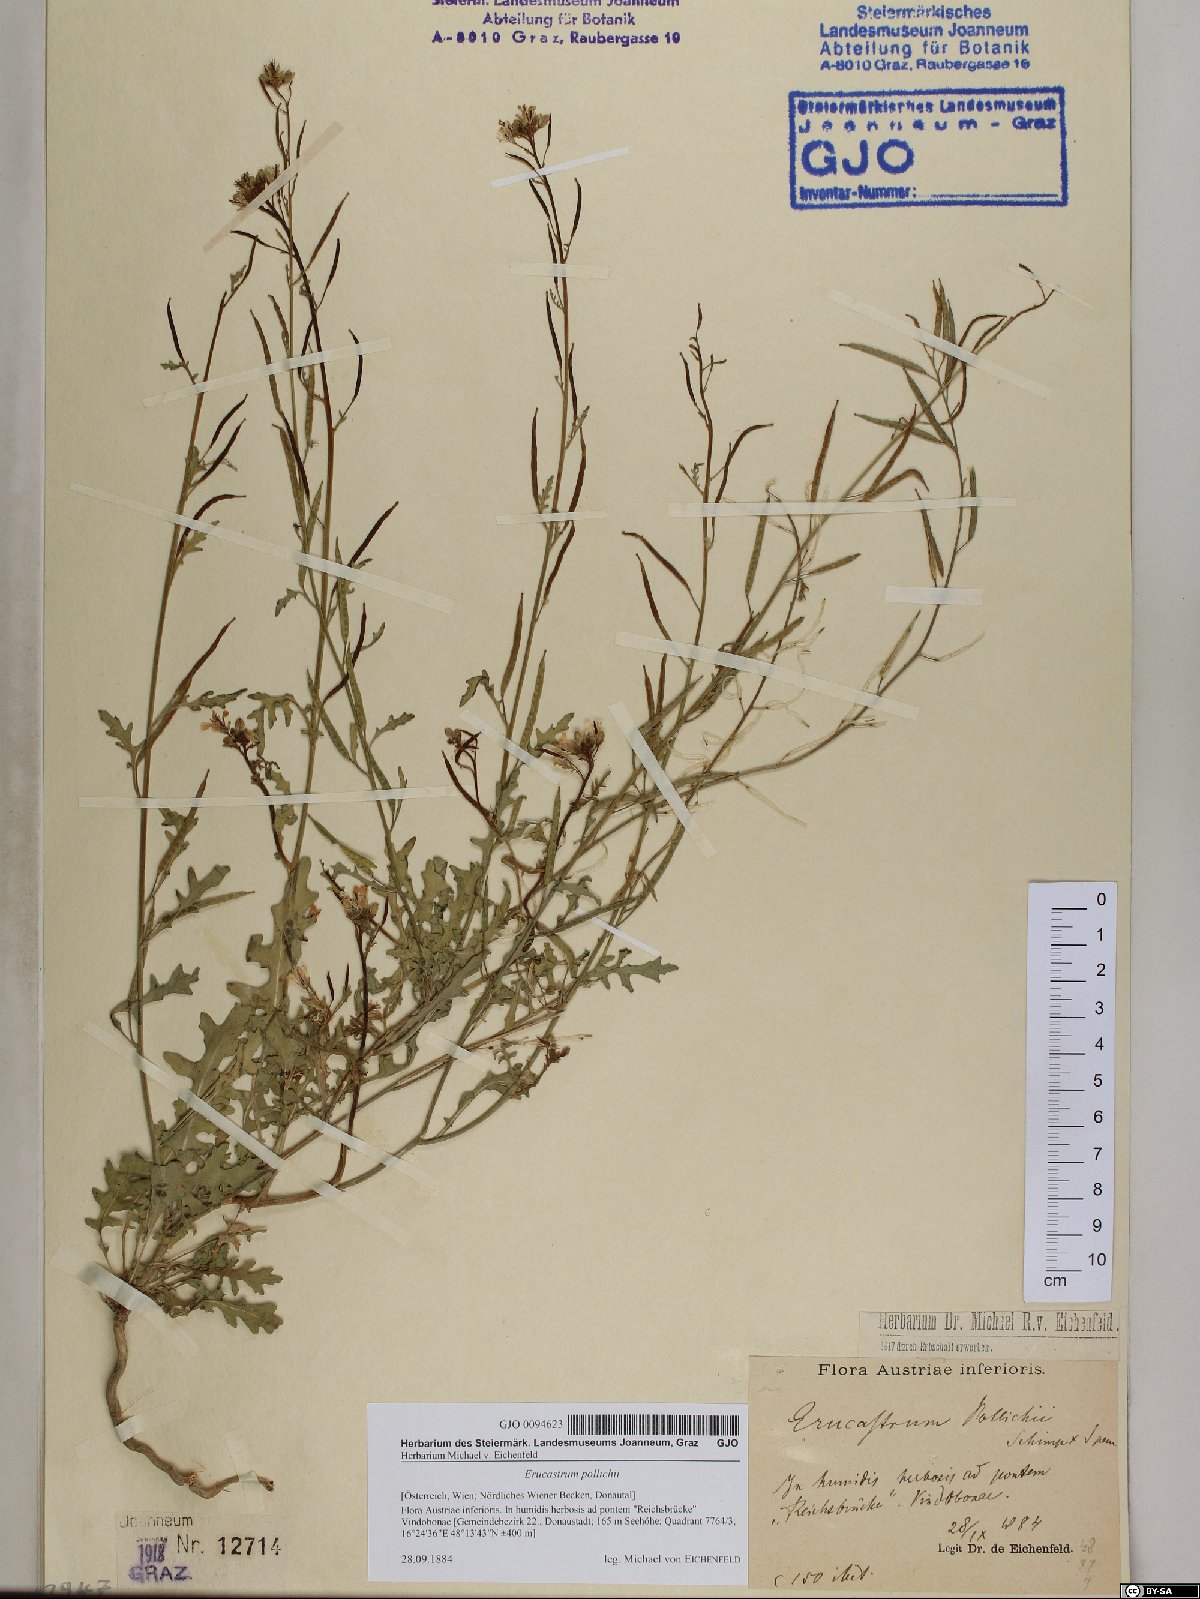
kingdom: Plantae
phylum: Tracheophyta
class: Magnoliopsida
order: Brassicales
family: Brassicaceae
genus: Erucastrum
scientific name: Erucastrum gallicum
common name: Hairy rocket
